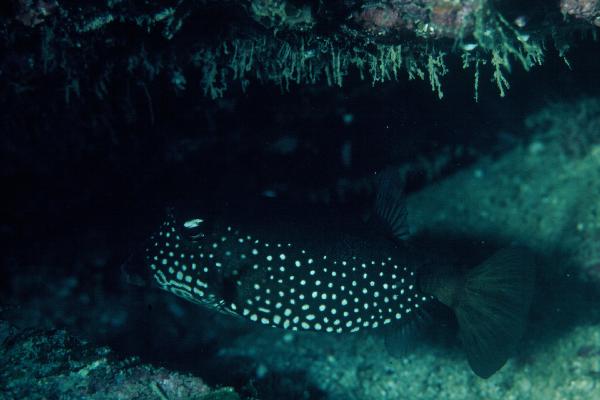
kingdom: Animalia
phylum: Chordata
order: Tetraodontiformes
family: Ostraciidae
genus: Ostracion
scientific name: Ostracion trachys
